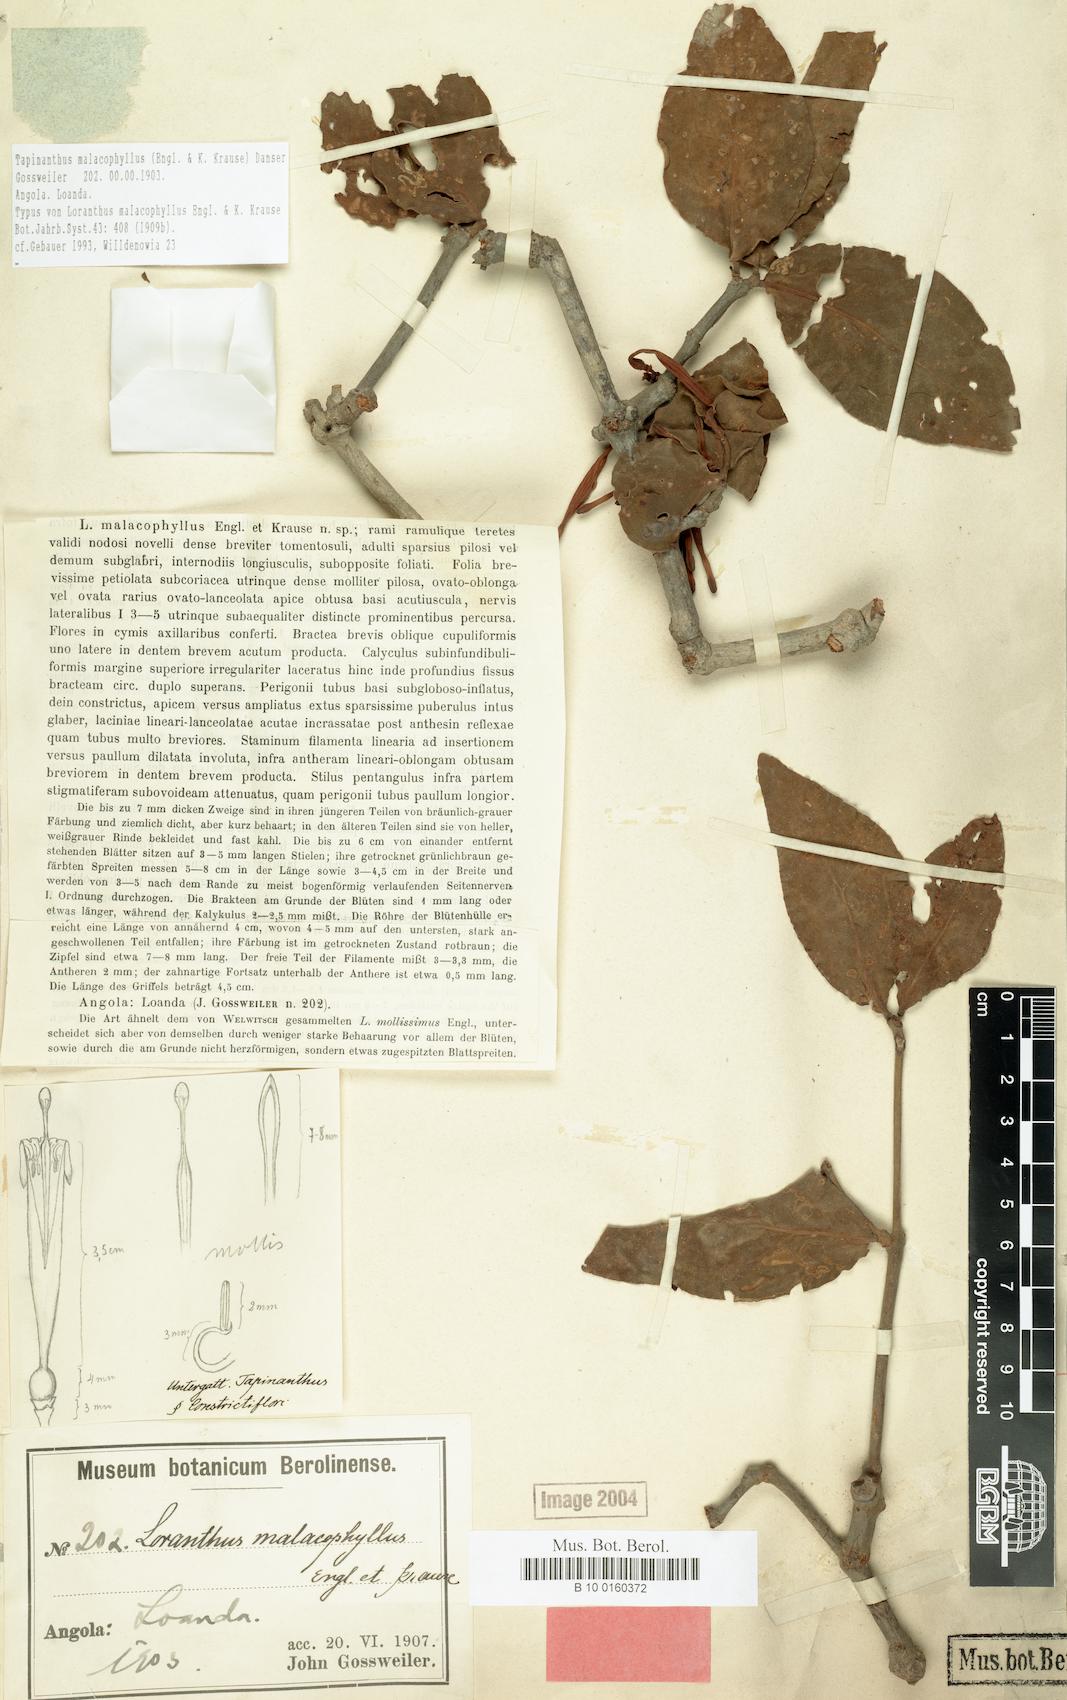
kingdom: Plantae
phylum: Tracheophyta
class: Magnoliopsida
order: Santalales
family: Loranthaceae
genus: Tapinanthus
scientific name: Tapinanthus malacophyllus
